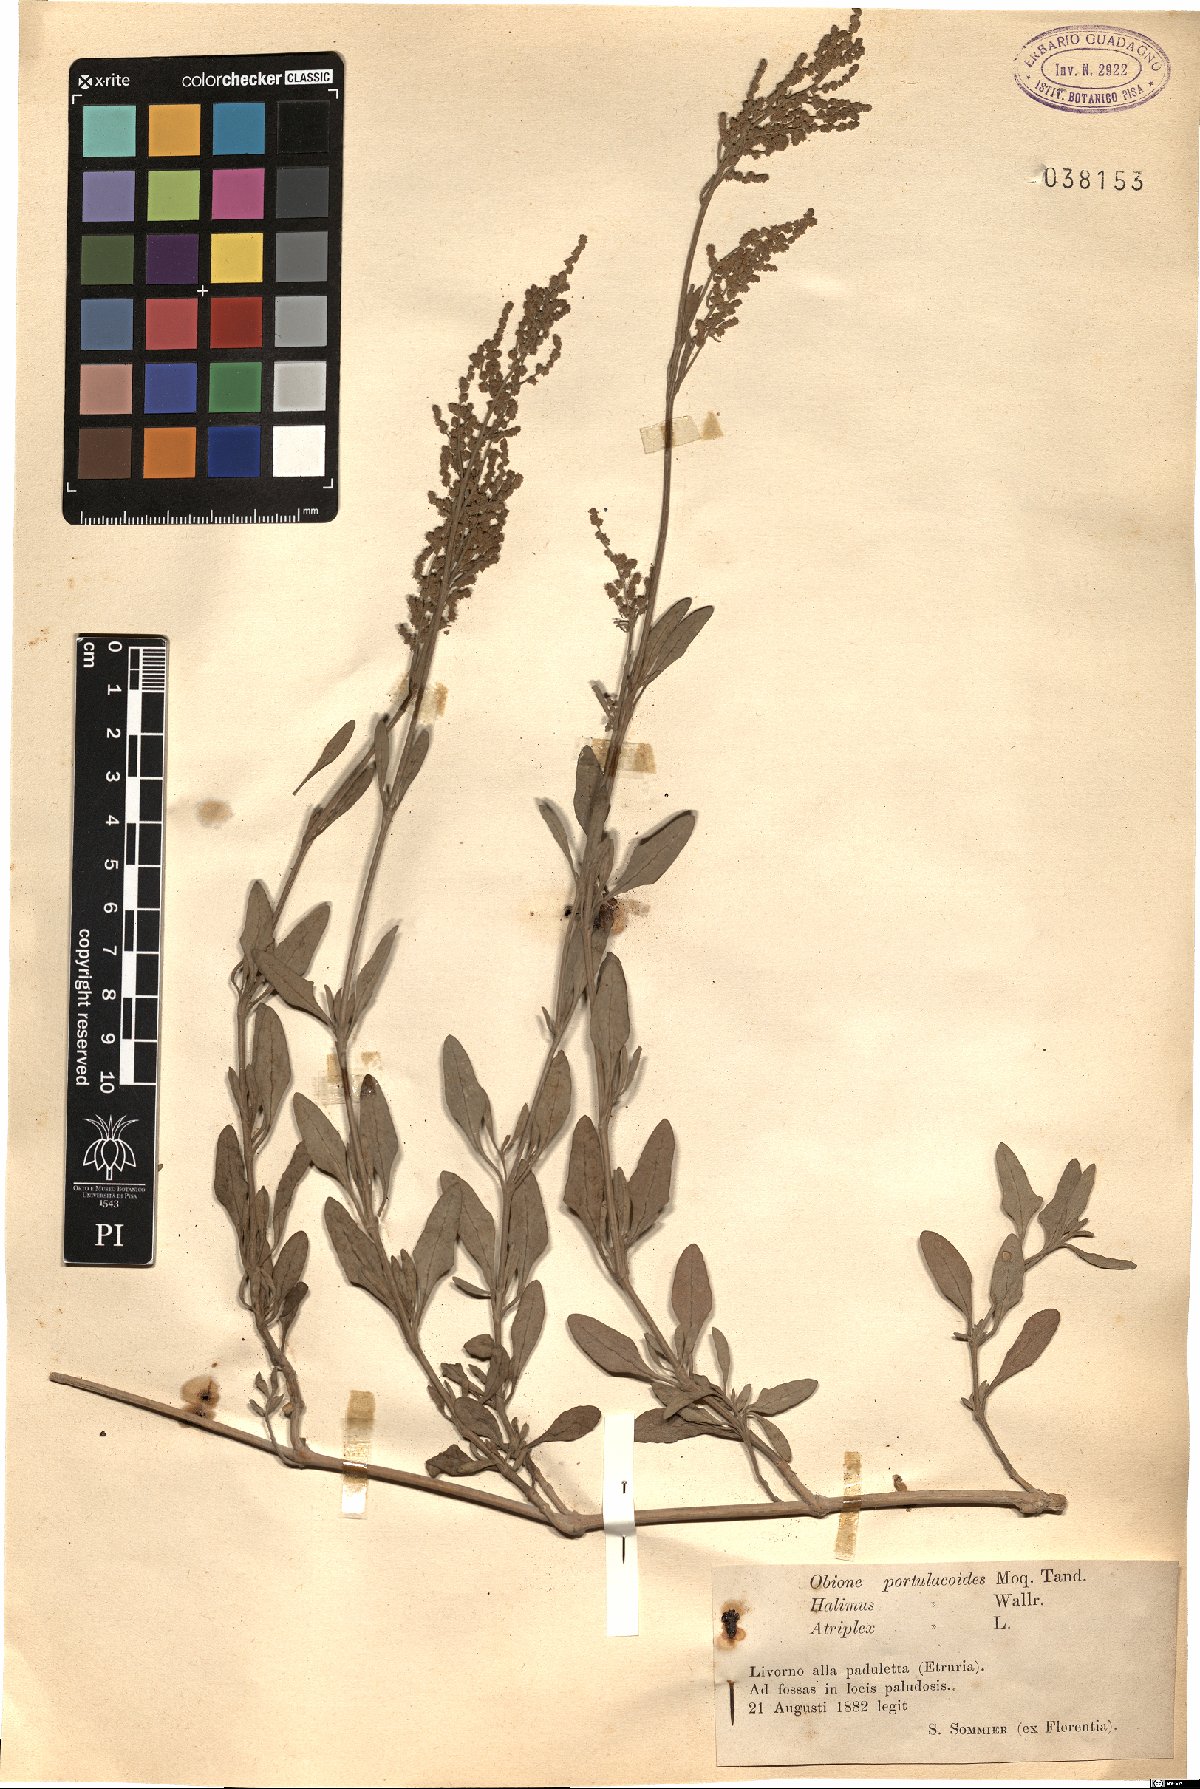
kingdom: Plantae
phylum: Tracheophyta
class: Magnoliopsida
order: Caryophyllales
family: Amaranthaceae
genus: Halimione
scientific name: Halimione portulacoides
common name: Sea-purslane
